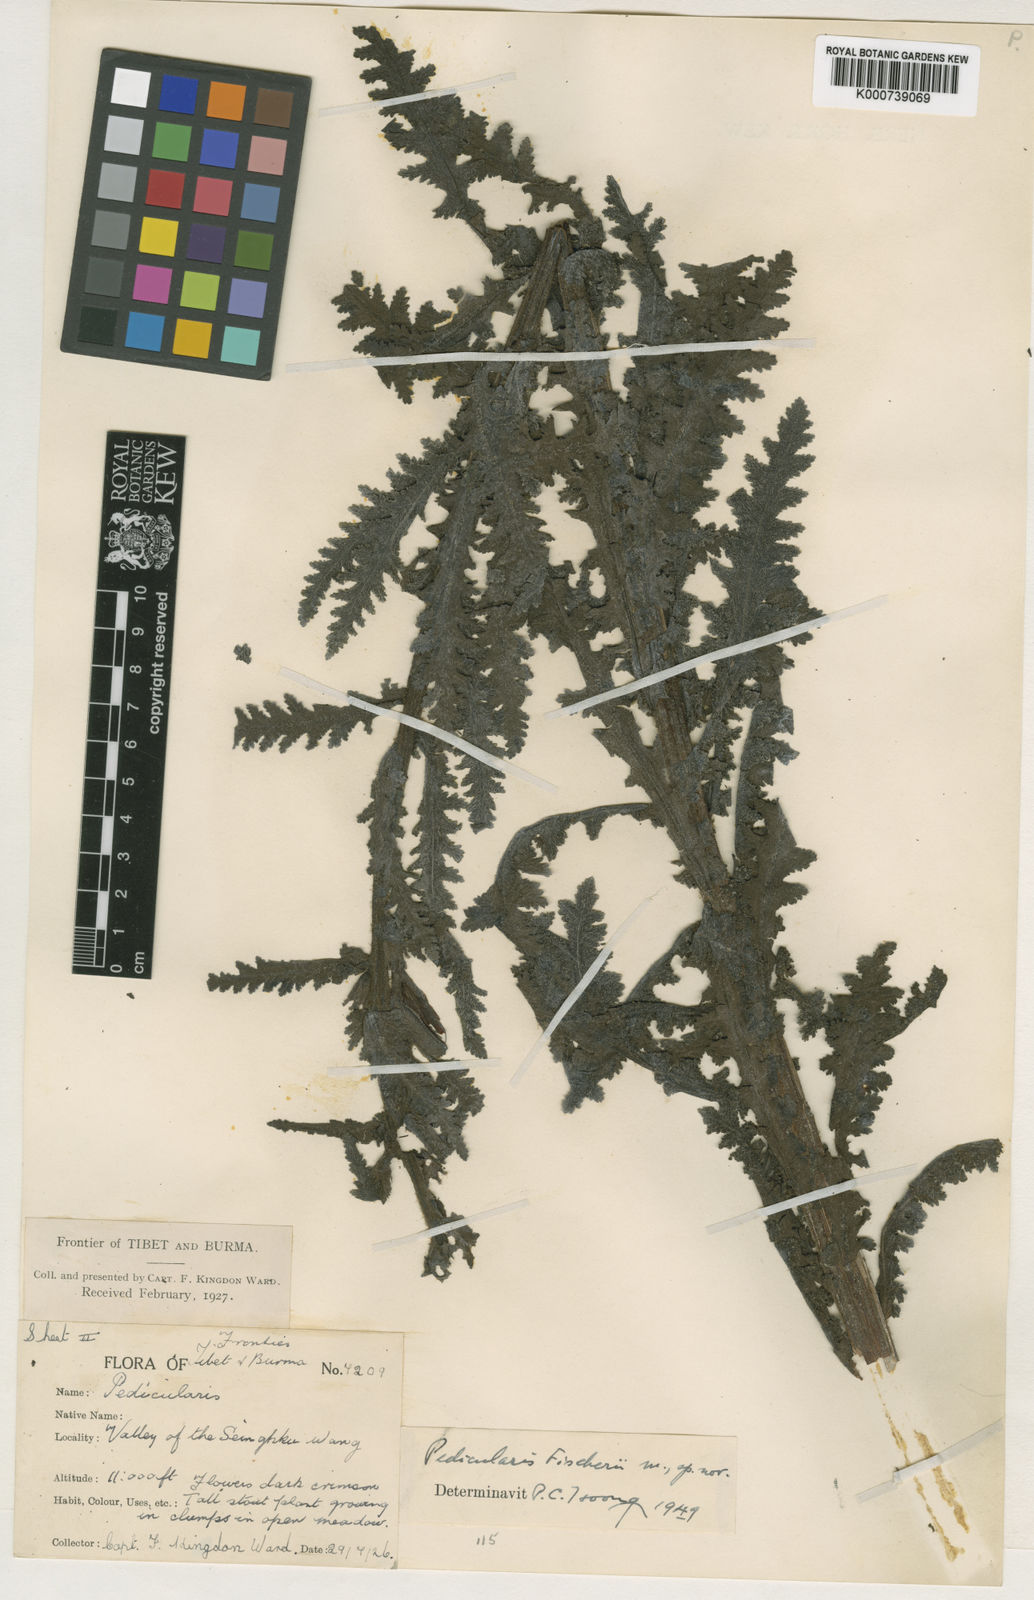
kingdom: Plantae
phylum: Tracheophyta
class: Magnoliopsida
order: Lamiales
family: Orobanchaceae
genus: Pedicularis
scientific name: Pedicularis
